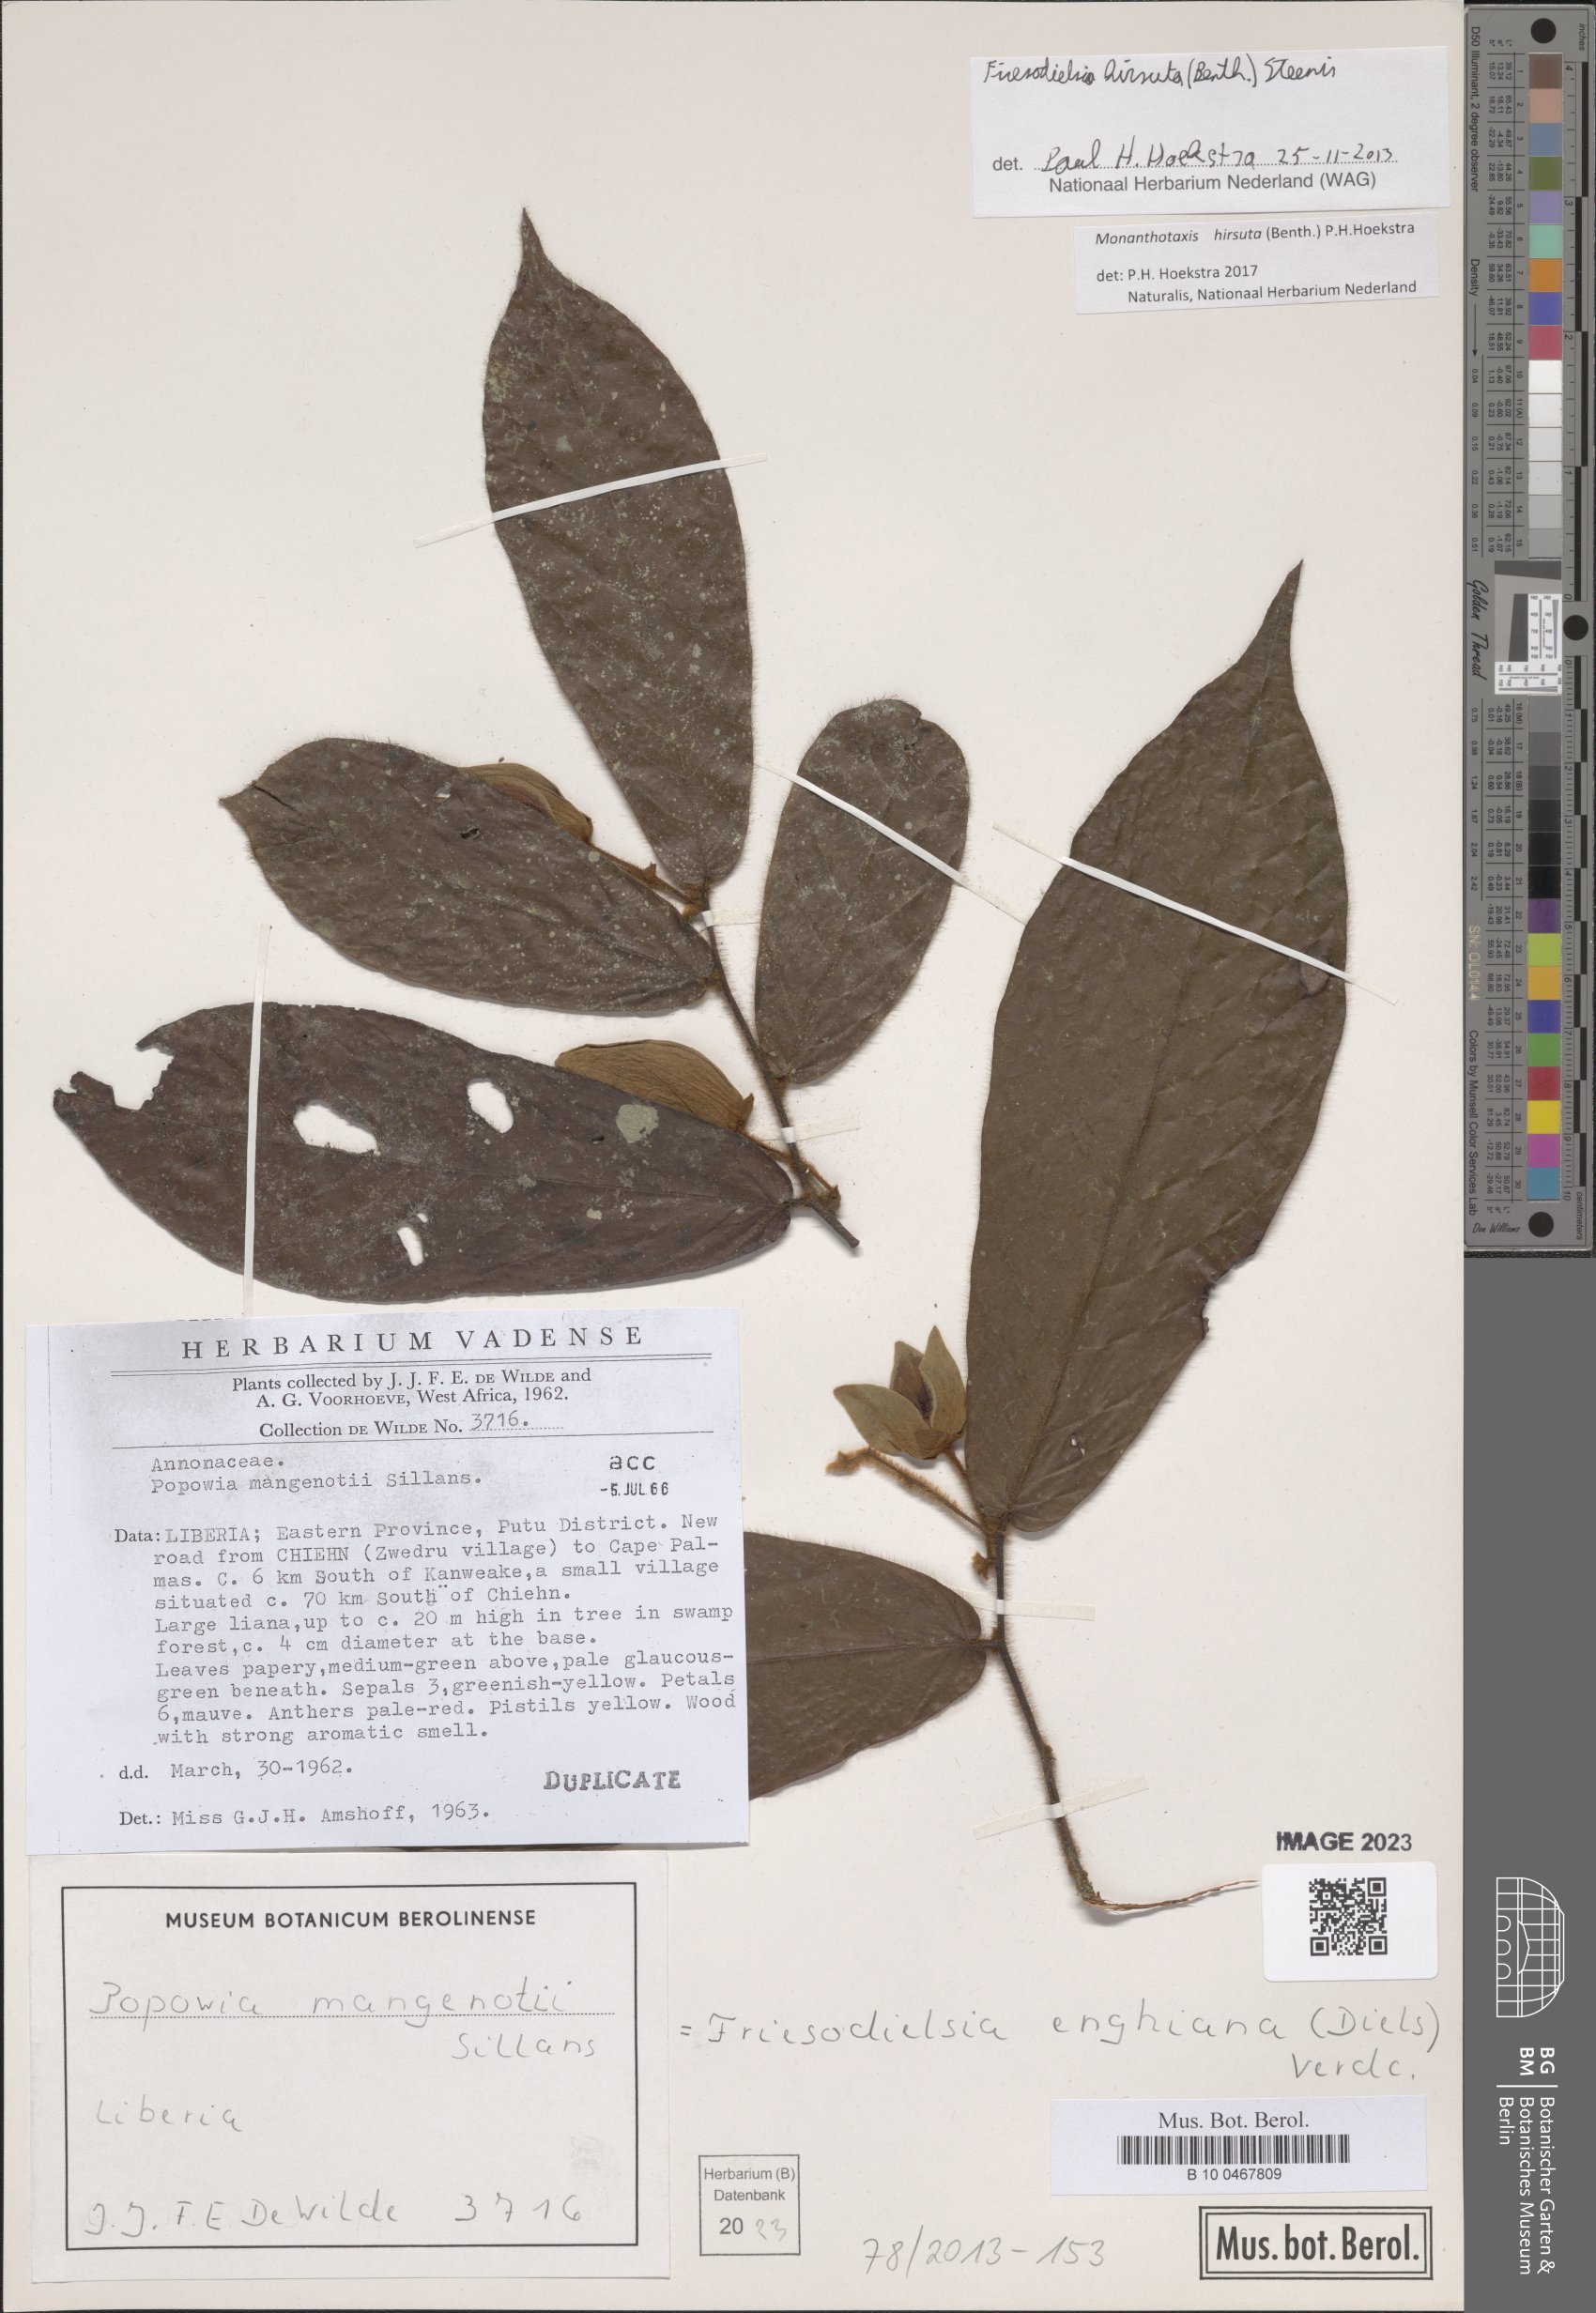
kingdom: Plantae
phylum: Tracheophyta
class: Magnoliopsida
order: Magnoliales
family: Annonaceae
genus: Friesodielsia
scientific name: Friesodielsia hirsuta
